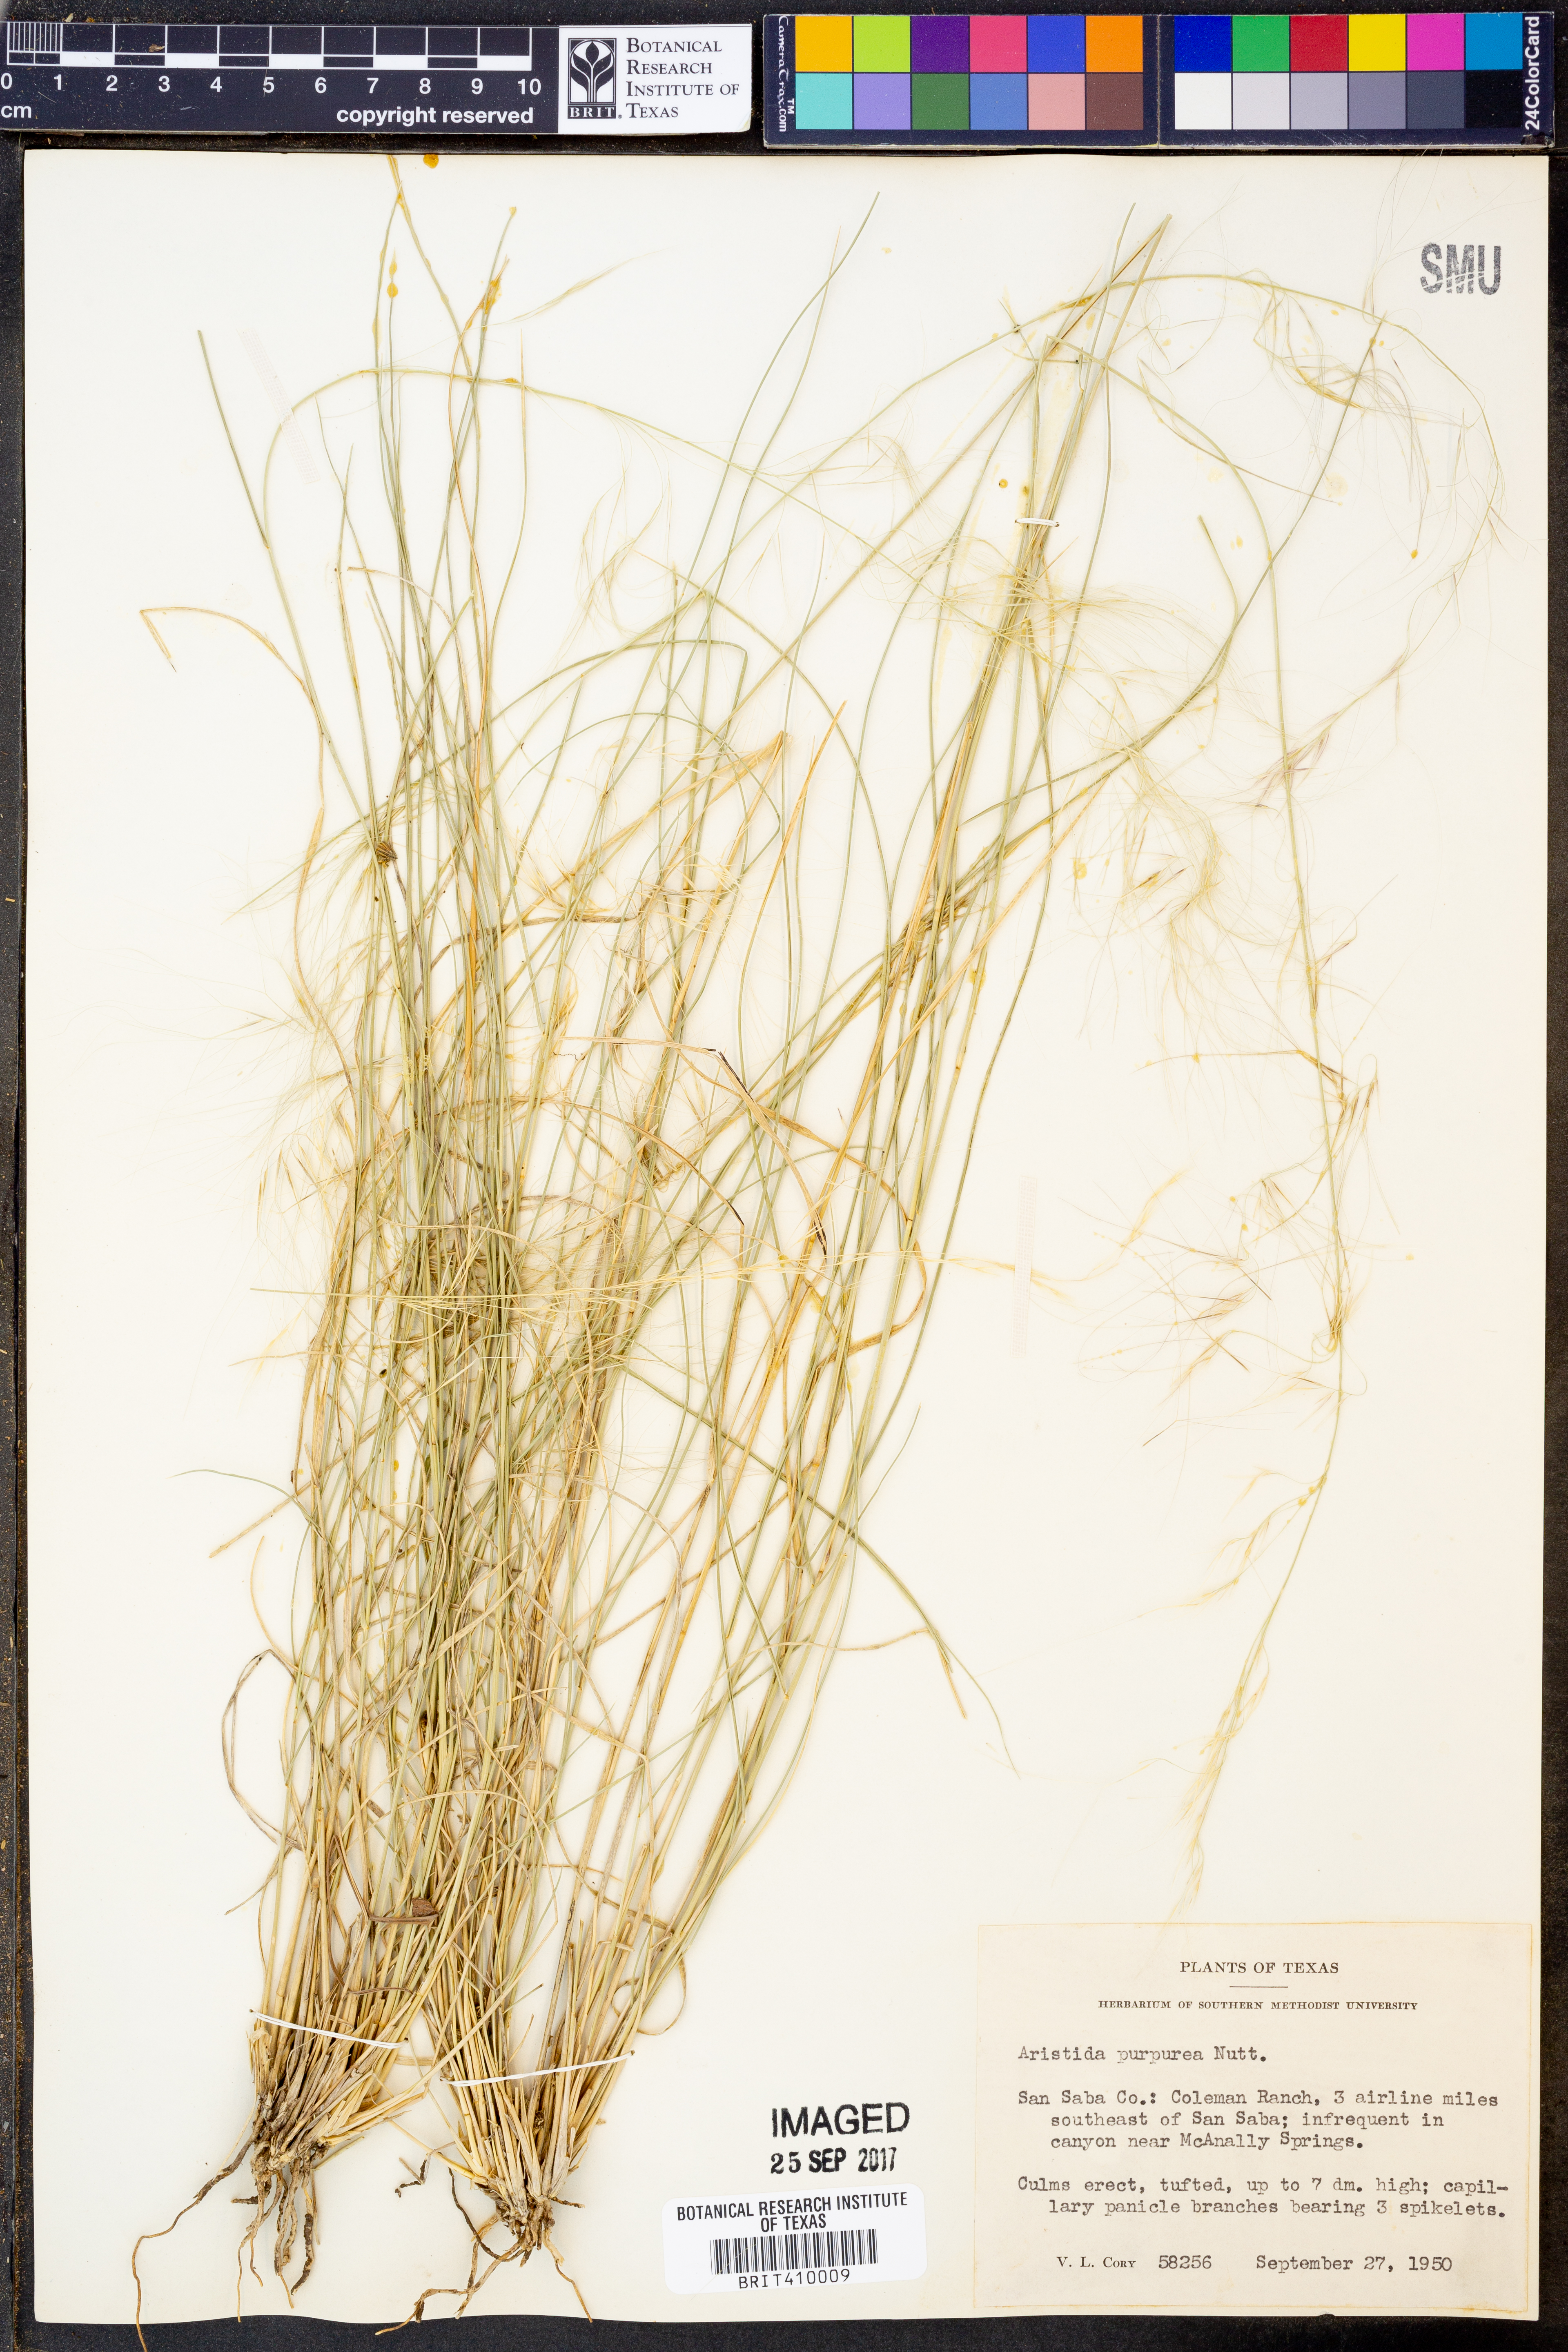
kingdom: Plantae
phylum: Tracheophyta
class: Liliopsida
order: Poales
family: Poaceae
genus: Aristida
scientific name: Aristida purpurea
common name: Purple threeawn
